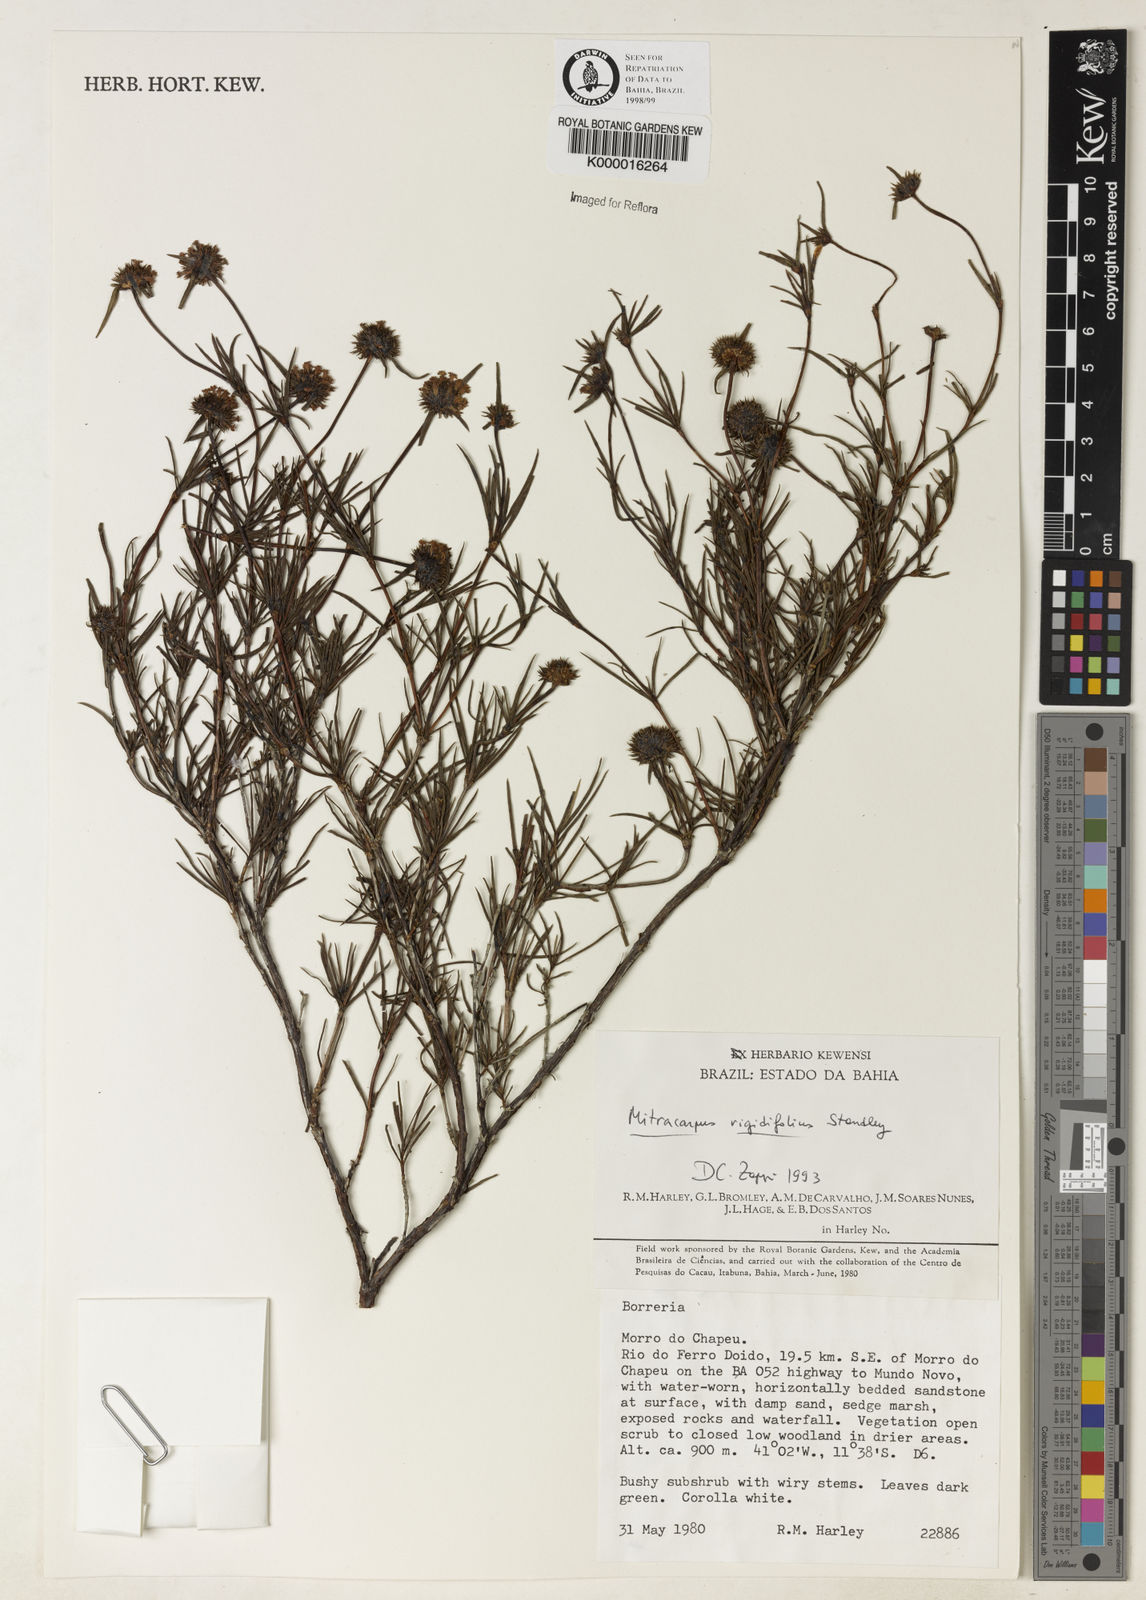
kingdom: Plantae
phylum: Tracheophyta
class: Magnoliopsida
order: Gentianales
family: Rubiaceae
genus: Mitracarpus
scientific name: Mitracarpus rigidifolius
